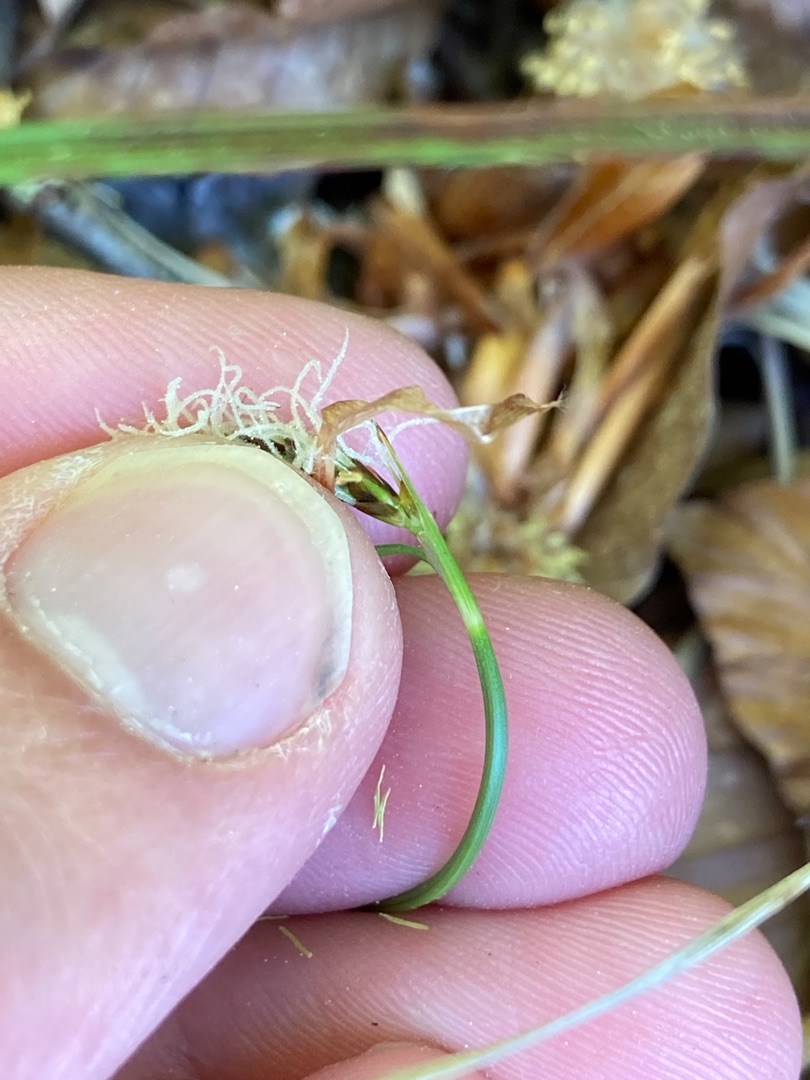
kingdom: Plantae
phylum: Tracheophyta
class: Liliopsida
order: Poales
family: Cyperaceae
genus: Carex
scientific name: Carex caryophyllea
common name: Vår-star
